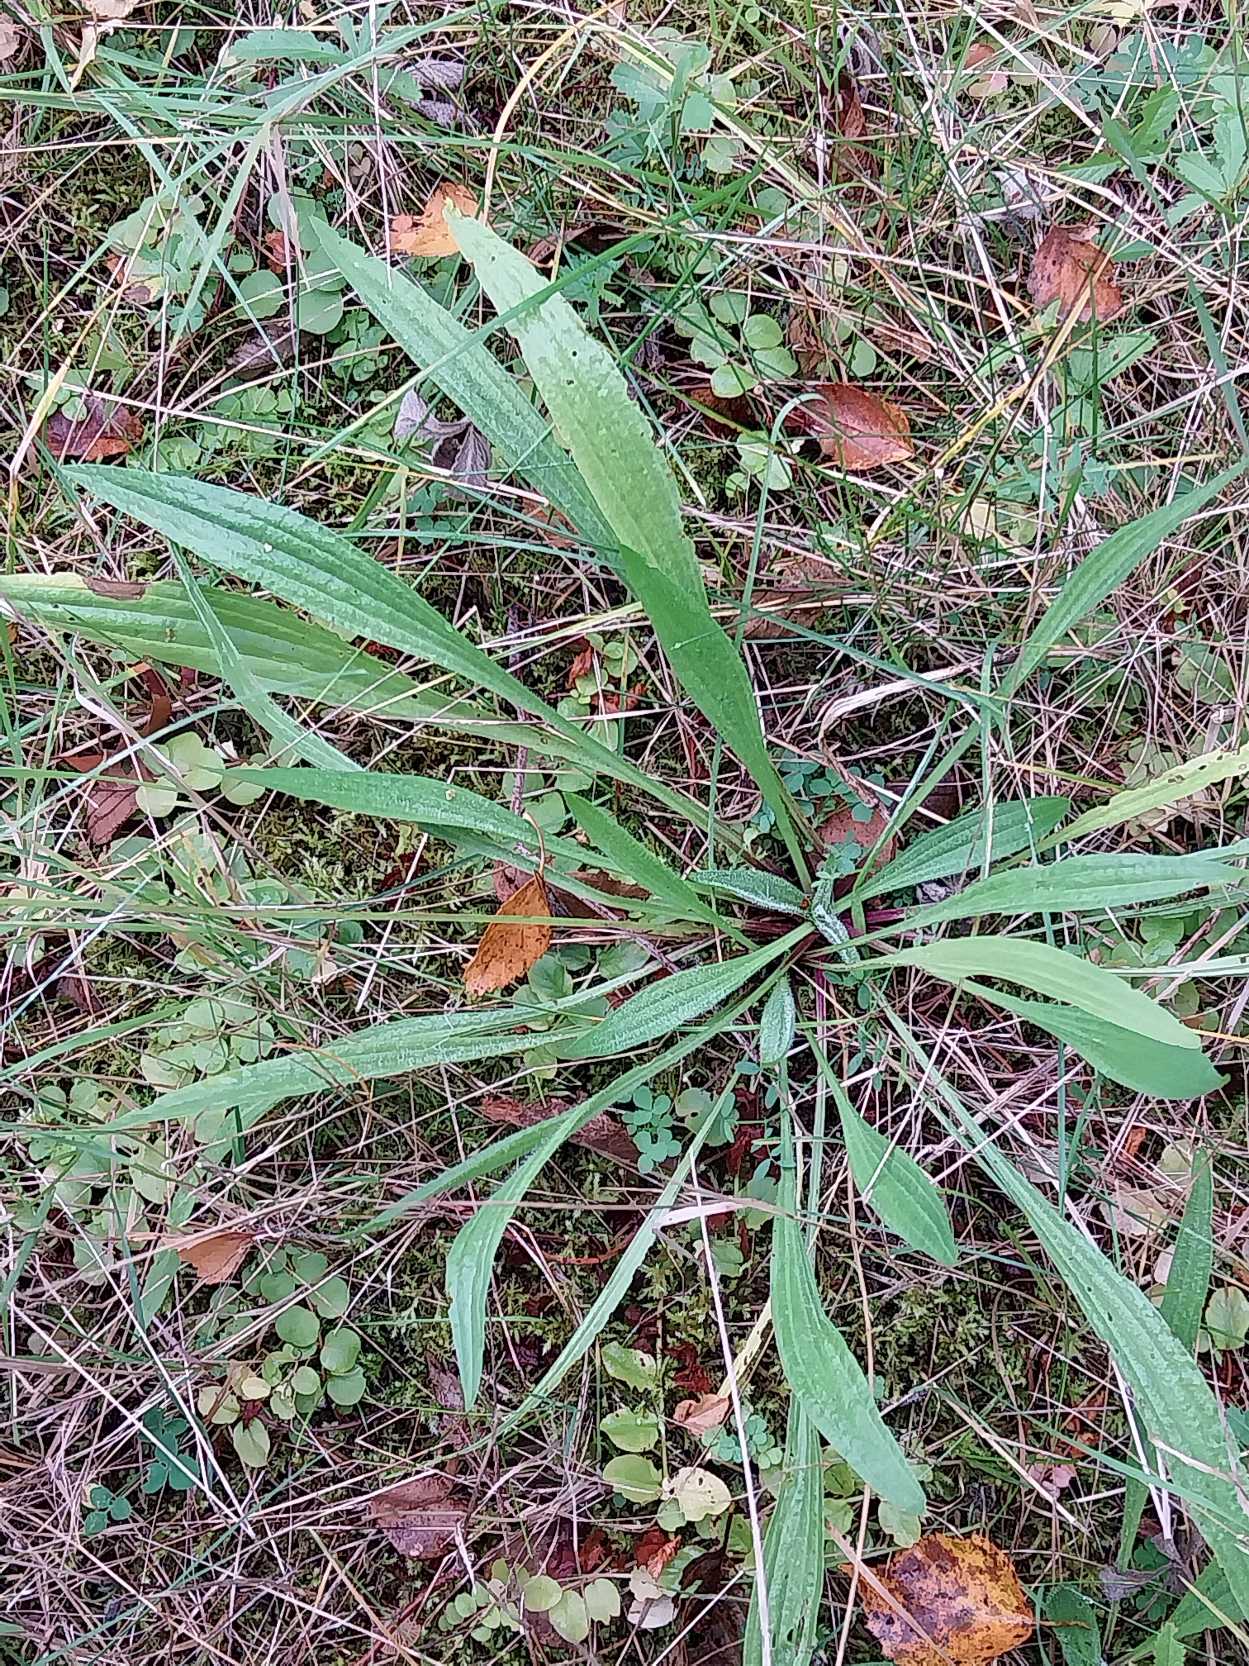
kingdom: Plantae
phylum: Tracheophyta
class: Magnoliopsida
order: Lamiales
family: Plantaginaceae
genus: Plantago
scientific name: Plantago lanceolata
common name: Lancet-vejbred
